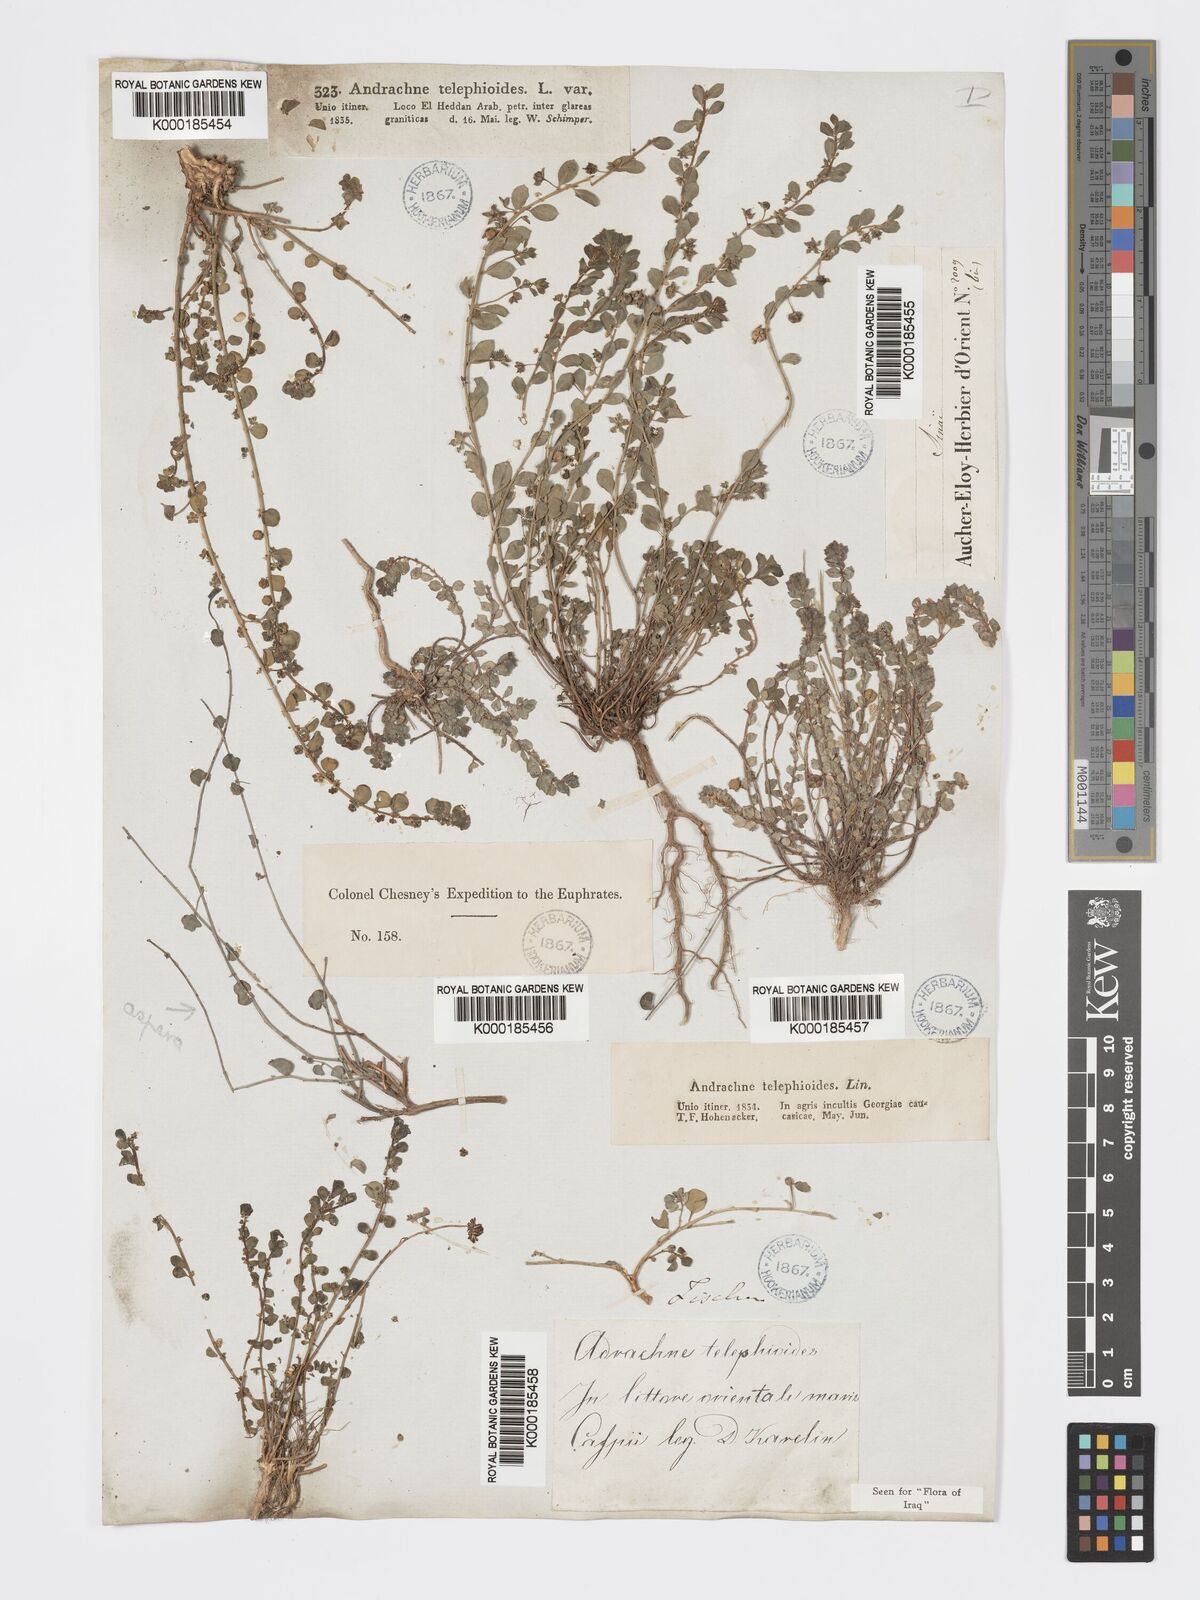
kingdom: Plantae
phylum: Tracheophyta
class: Magnoliopsida
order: Malpighiales
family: Phyllanthaceae
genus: Andrachne
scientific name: Andrachne telephioides
